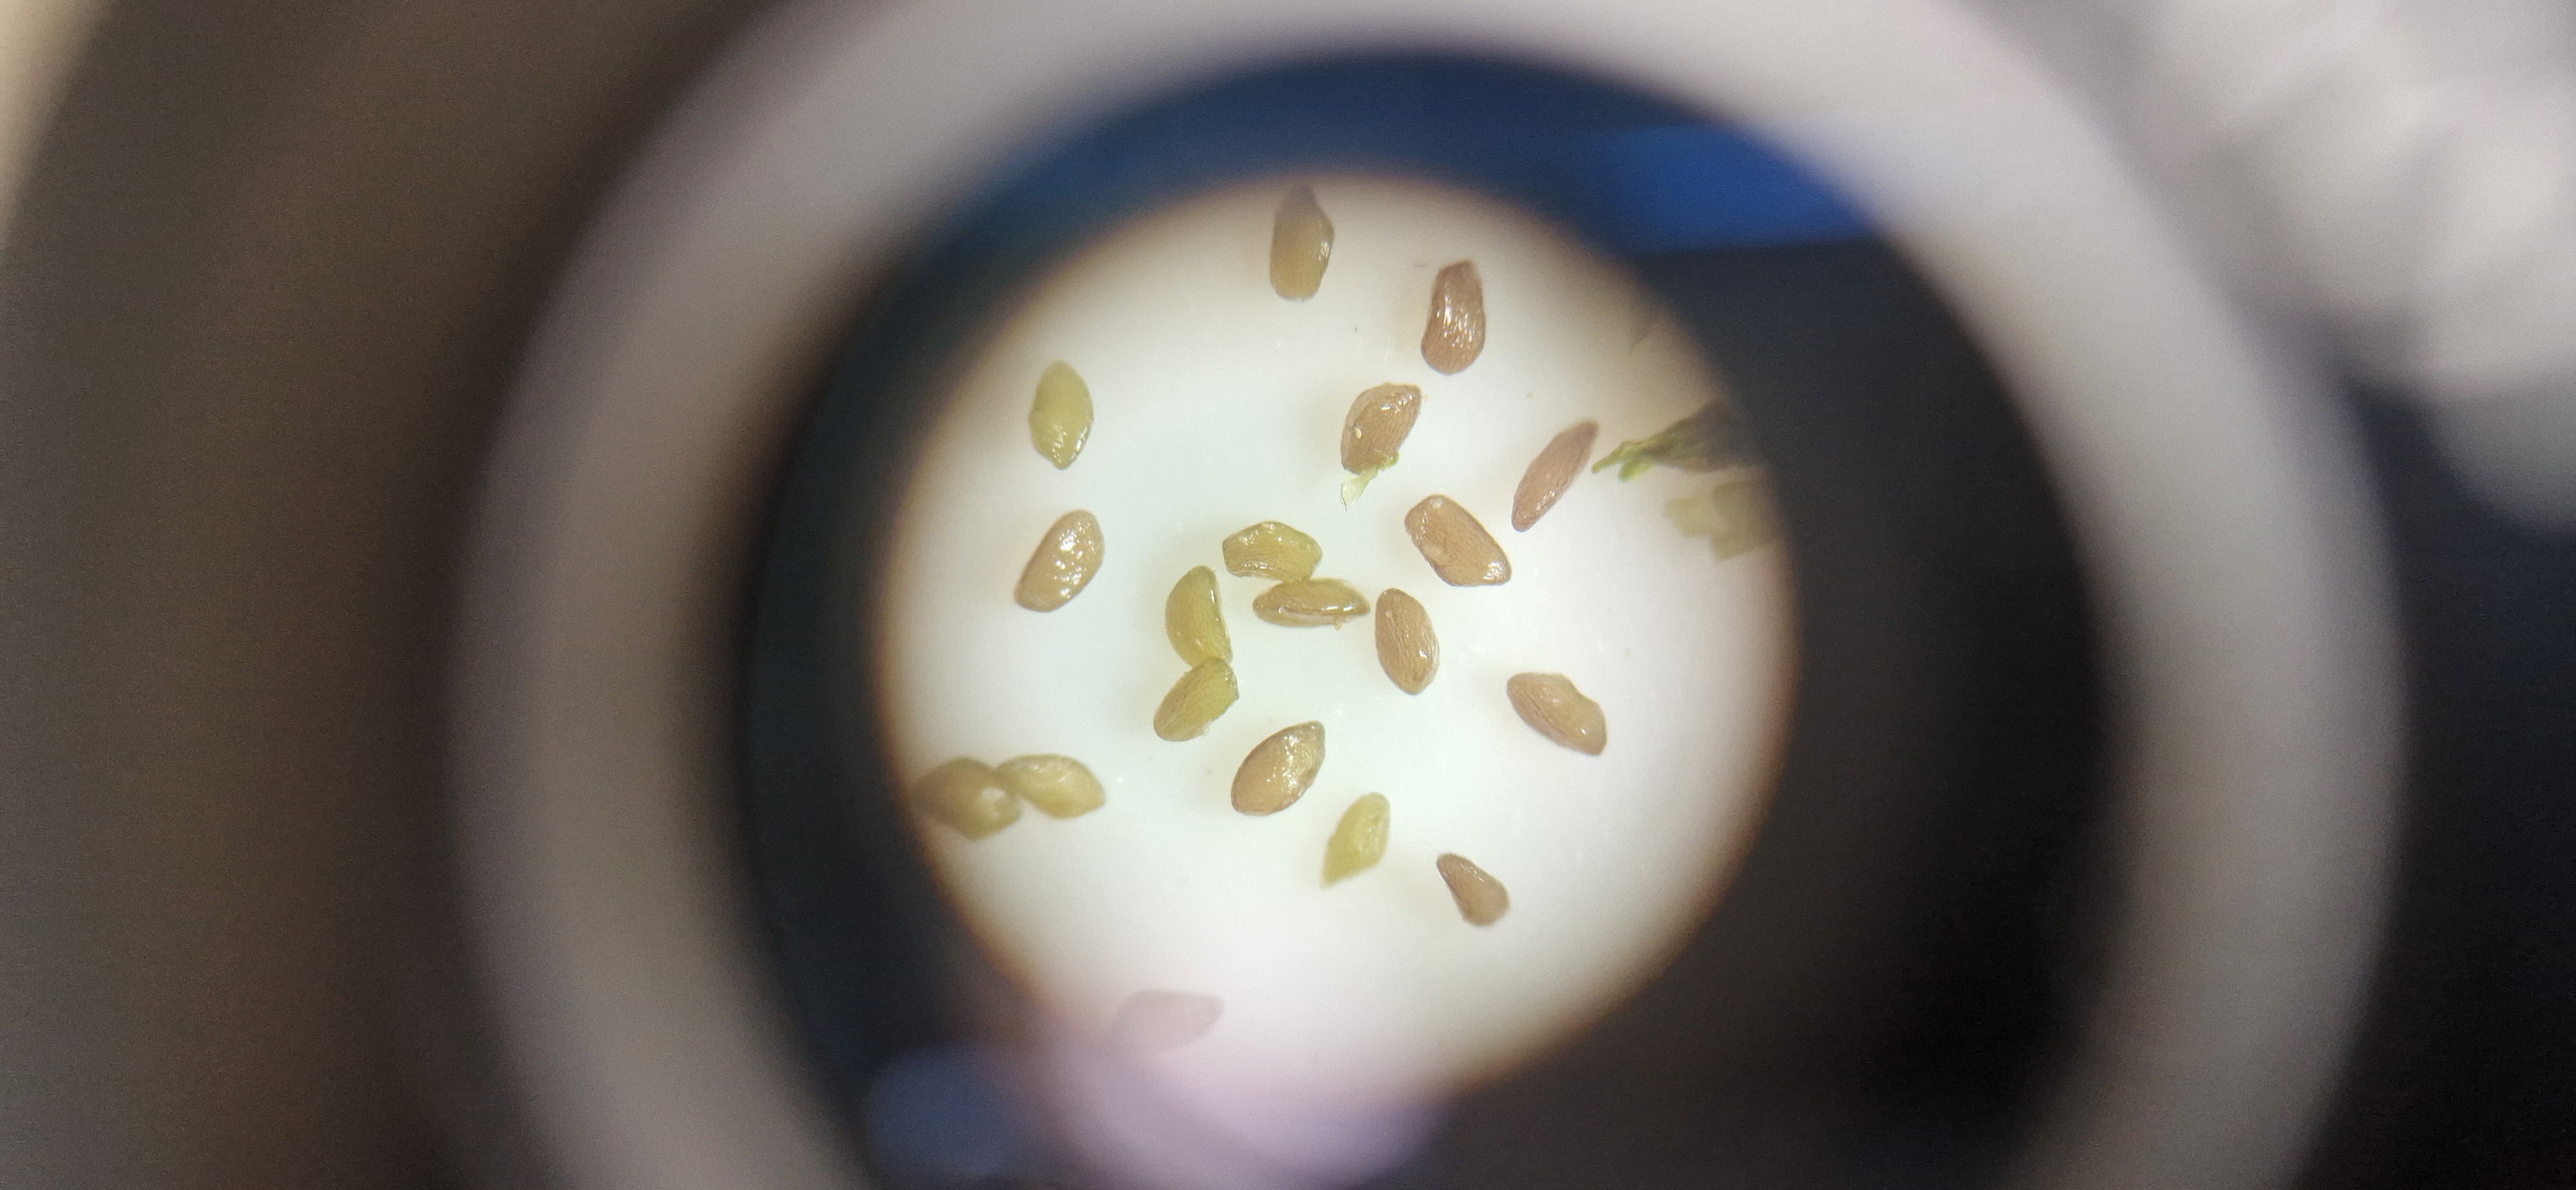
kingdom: Plantae
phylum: Tracheophyta
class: Magnoliopsida
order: Lamiales
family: Plantaginaceae
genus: Plantago
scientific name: Plantago uliginosa
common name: Ager-vejbred
